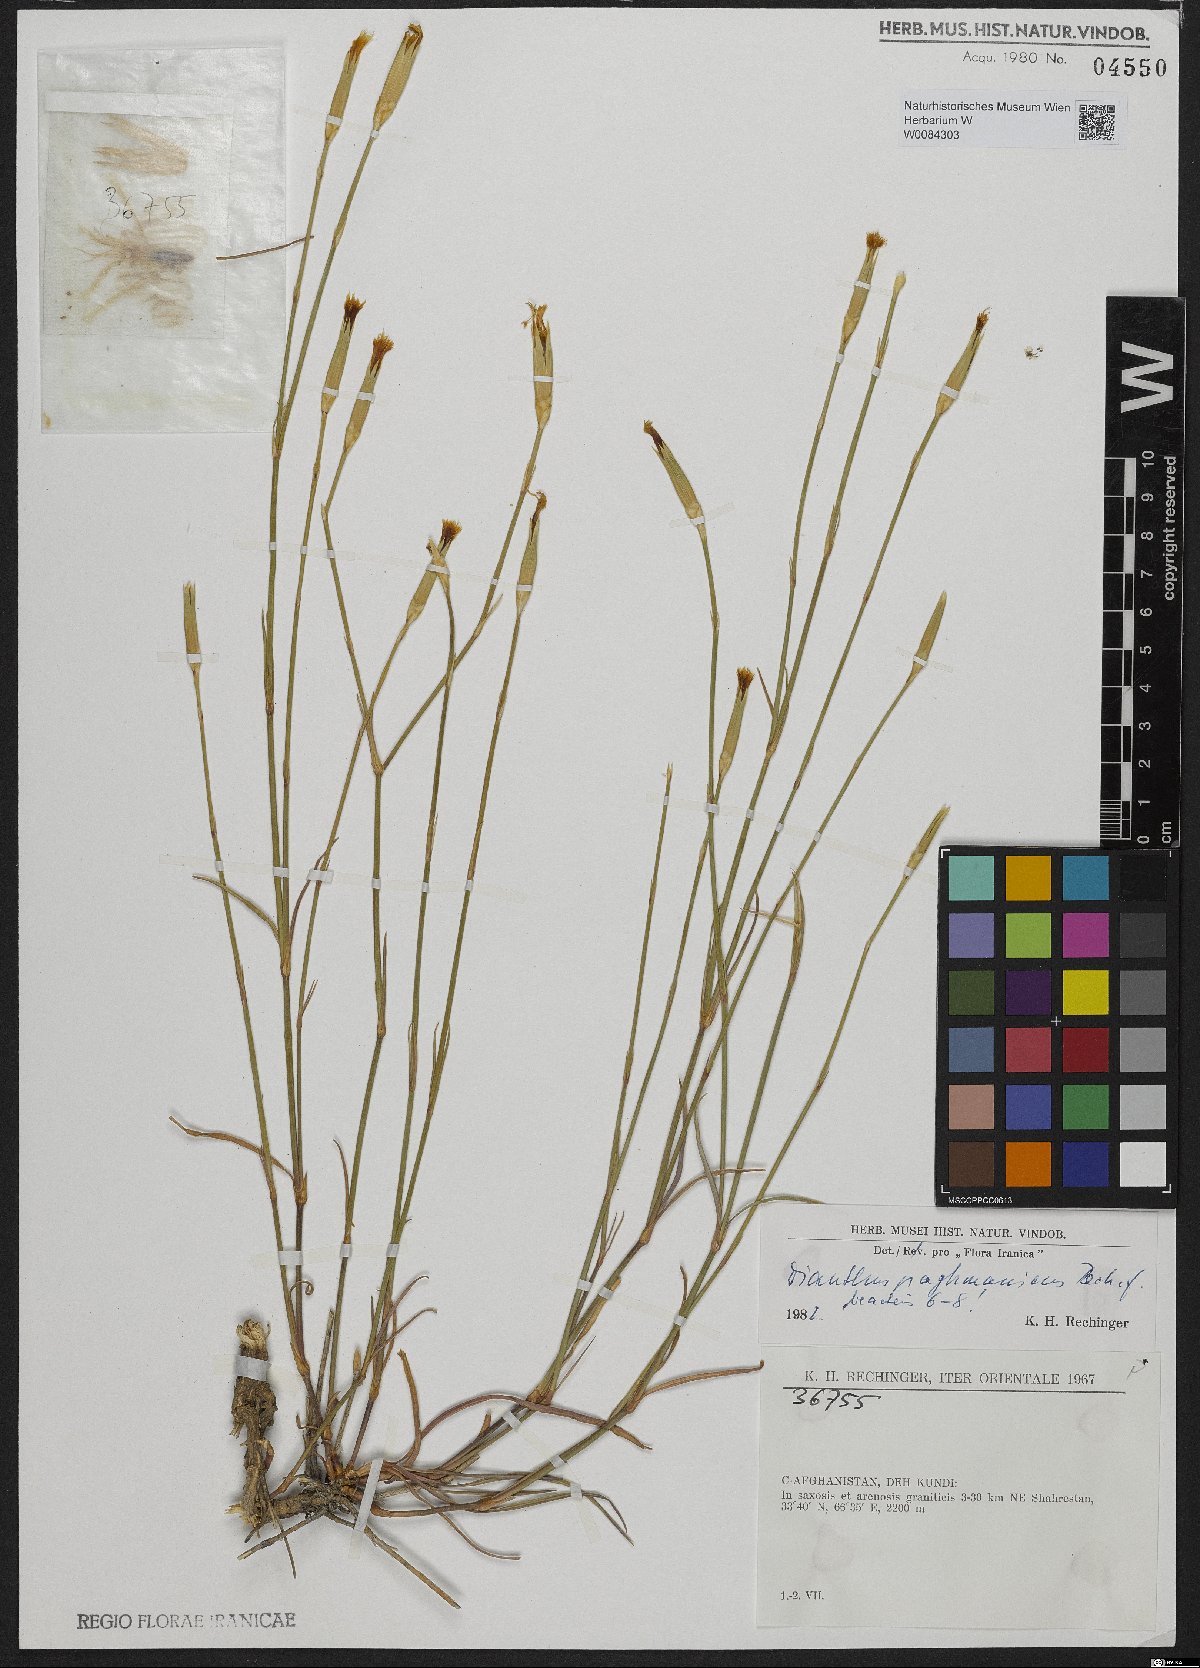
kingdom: Plantae
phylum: Tracheophyta
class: Magnoliopsida
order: Caryophyllales
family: Caryophyllaceae
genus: Dianthus
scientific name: Dianthus paghmanicus
